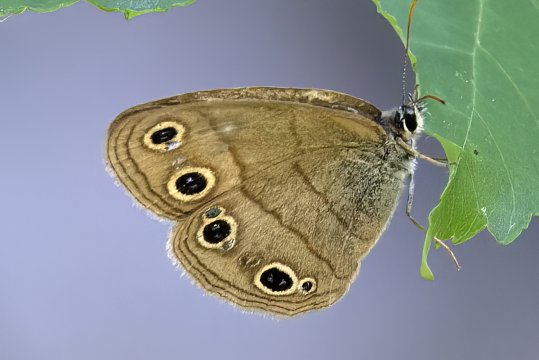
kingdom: Animalia
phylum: Arthropoda
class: Insecta
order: Lepidoptera
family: Nymphalidae
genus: Euptychia
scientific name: Euptychia cymela
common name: Little Wood Satyr
